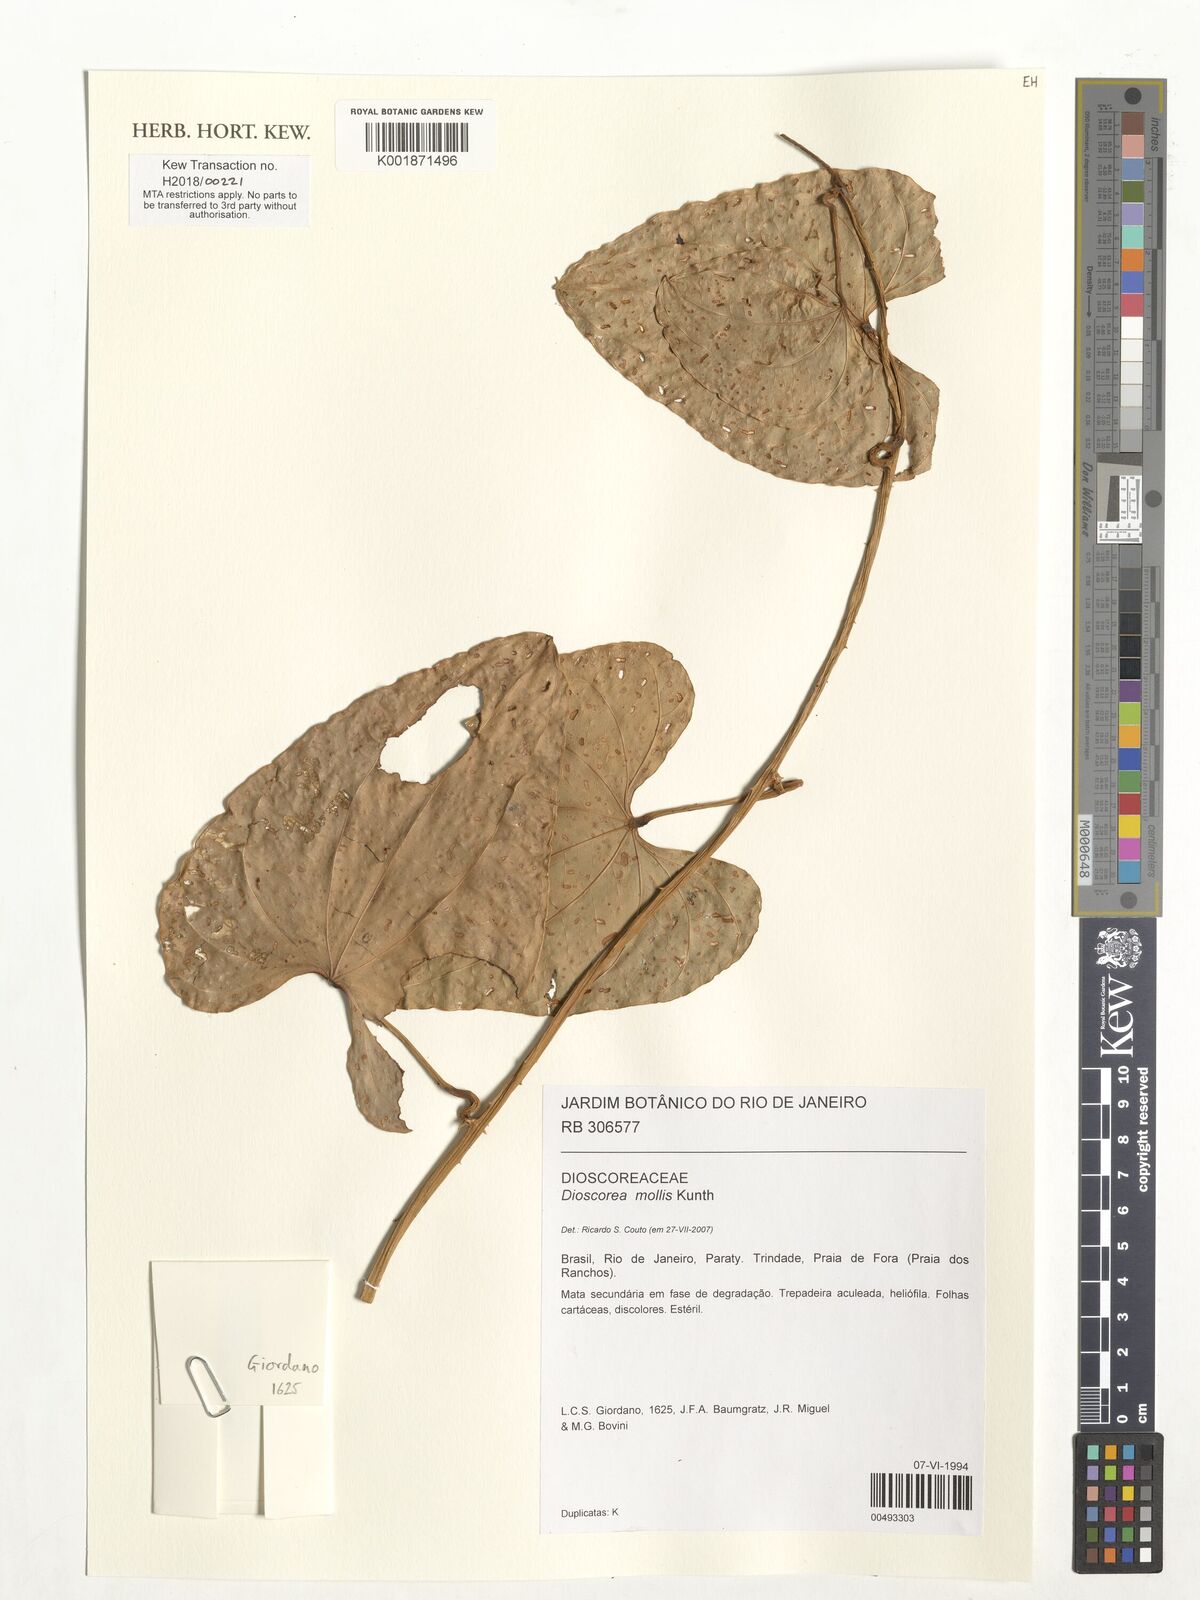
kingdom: Plantae
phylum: Tracheophyta
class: Liliopsida
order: Dioscoreales
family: Dioscoreaceae
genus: Dioscorea
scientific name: Dioscorea mollis
